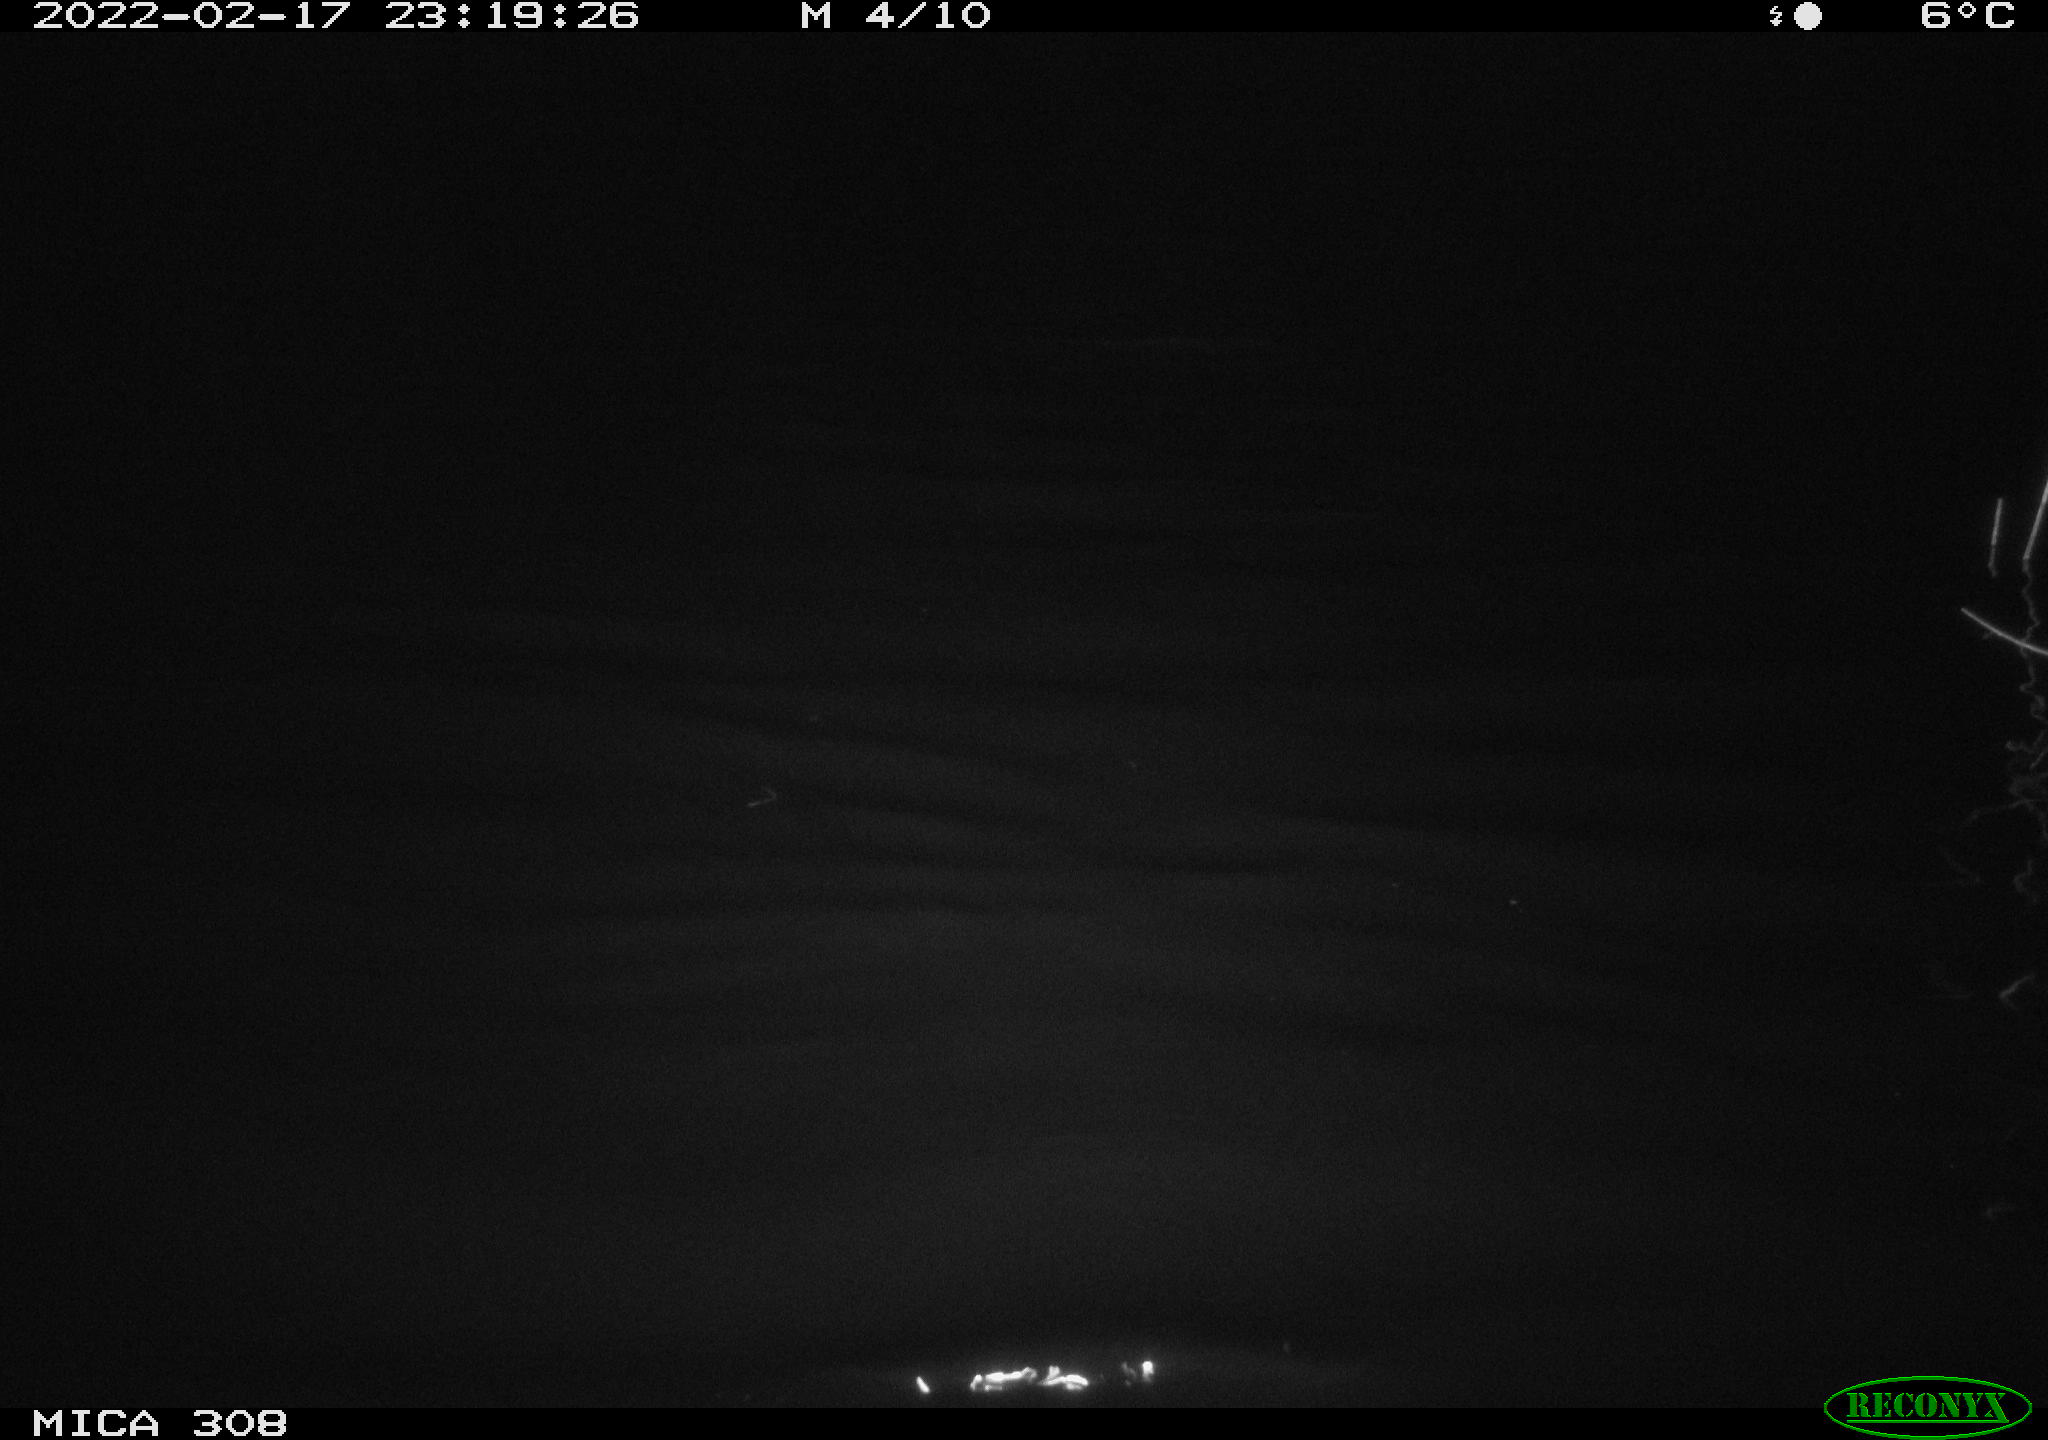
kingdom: Animalia
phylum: Chordata
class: Mammalia
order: Rodentia
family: Cricetidae
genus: Ondatra
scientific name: Ondatra zibethicus
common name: Muskrat
